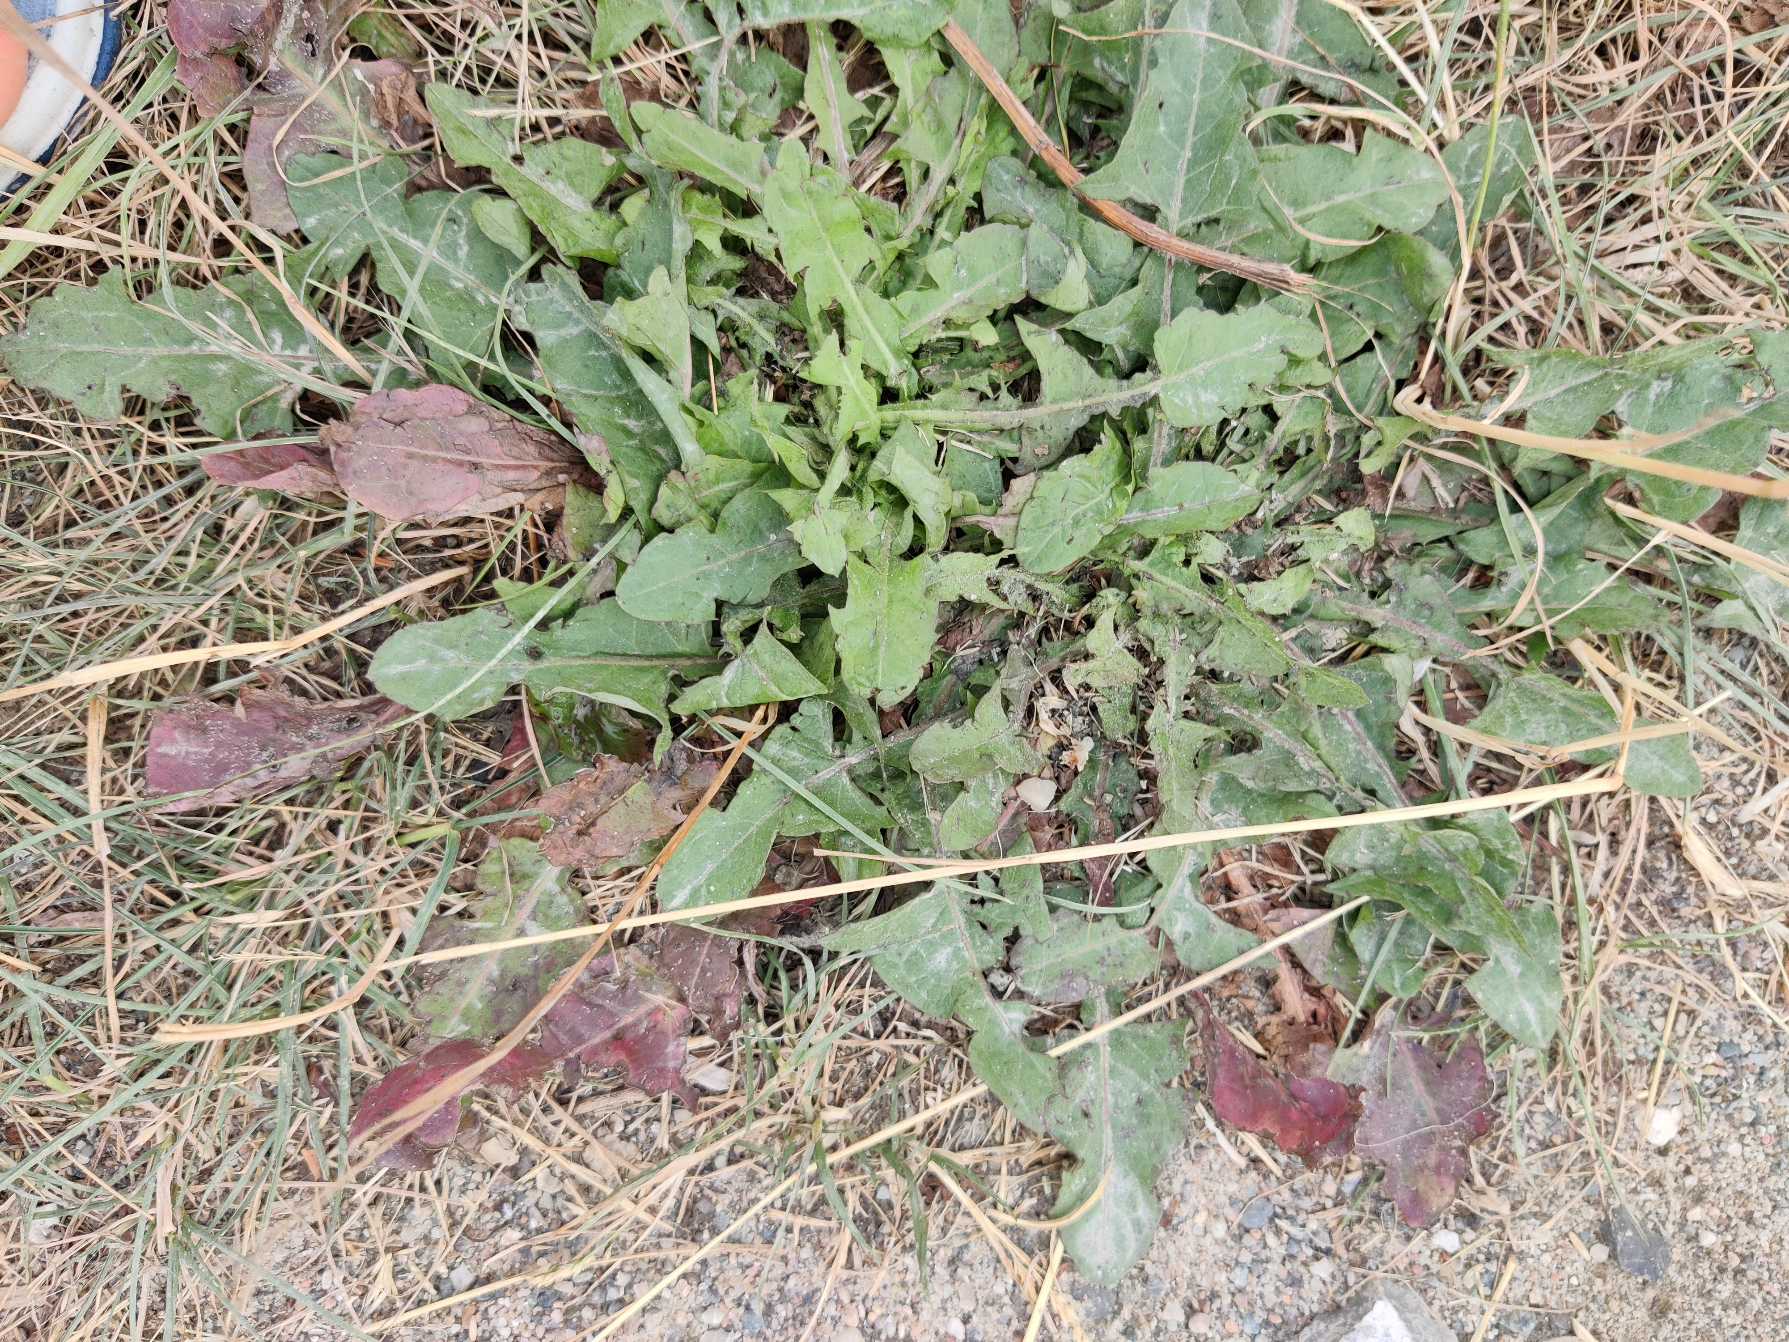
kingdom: Plantae
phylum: Tracheophyta
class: Magnoliopsida
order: Asterales
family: Asteraceae
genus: Taraxacum
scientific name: Taraxacum
